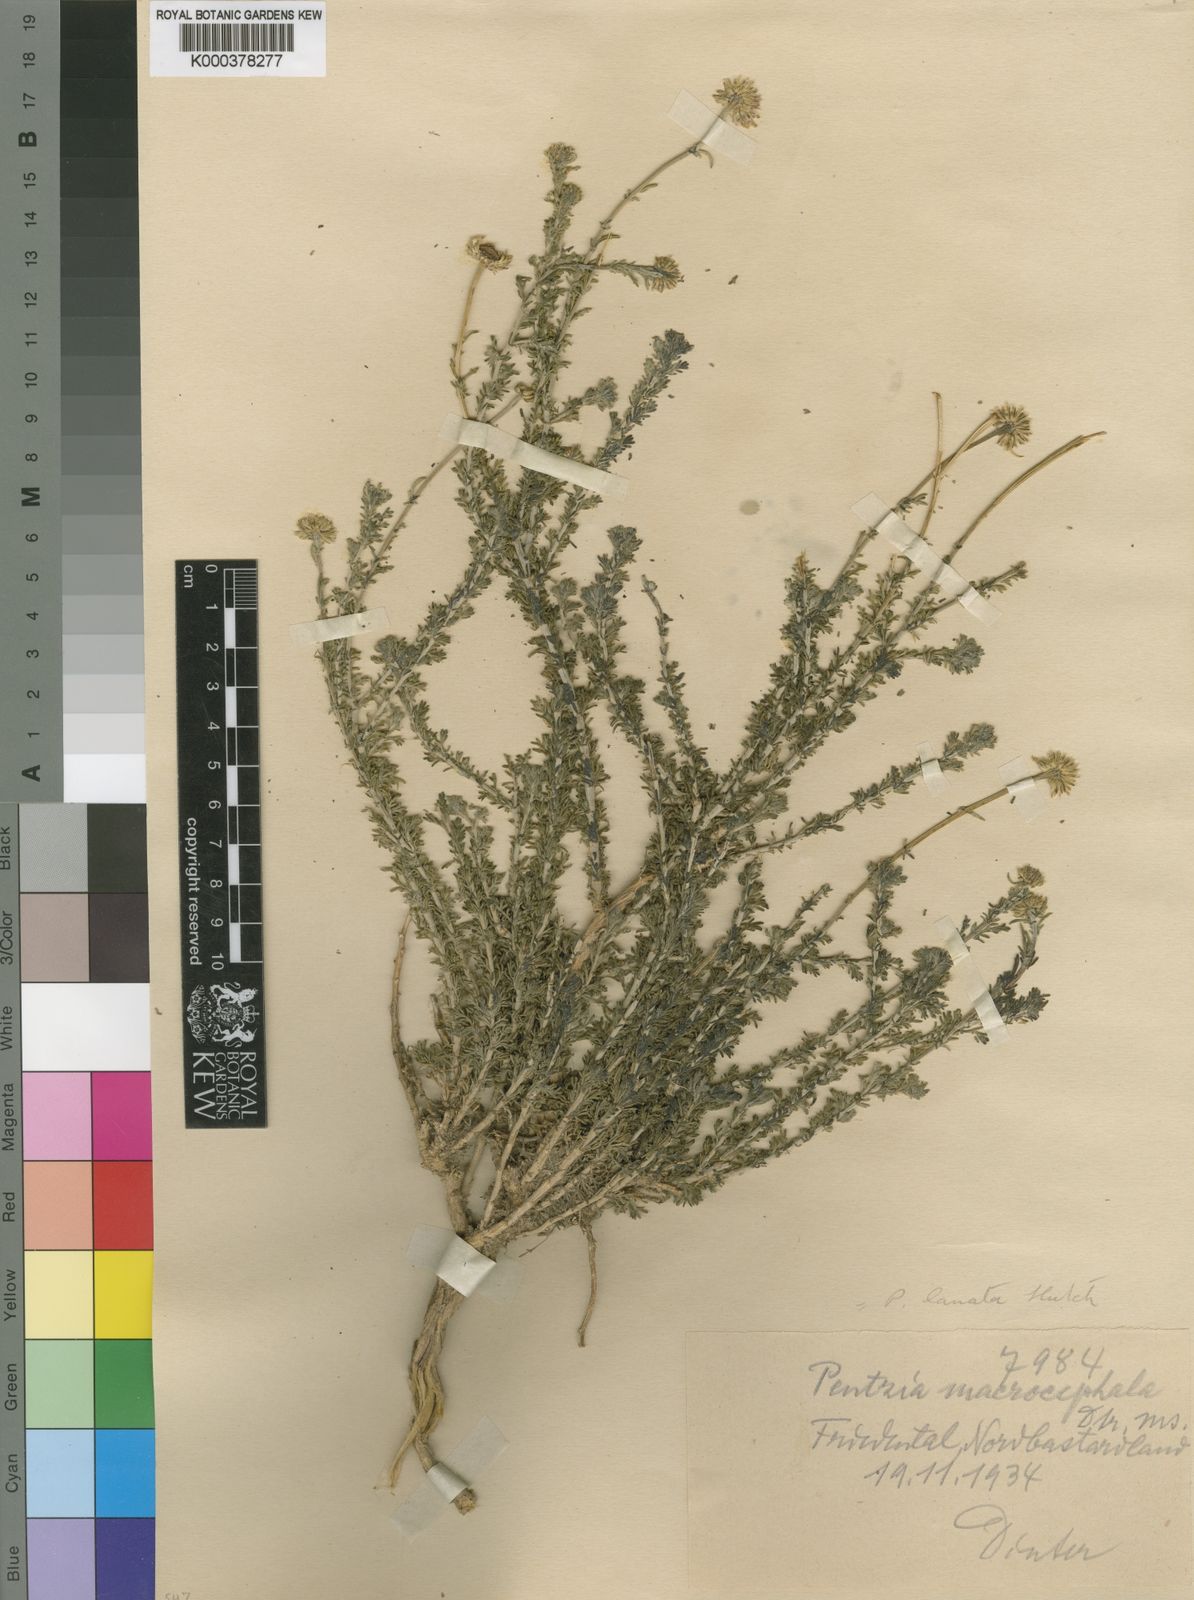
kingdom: Plantae
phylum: Tracheophyta
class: Magnoliopsida
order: Asterales
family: Asteraceae
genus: Pentzia
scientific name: Pentzia lanata
